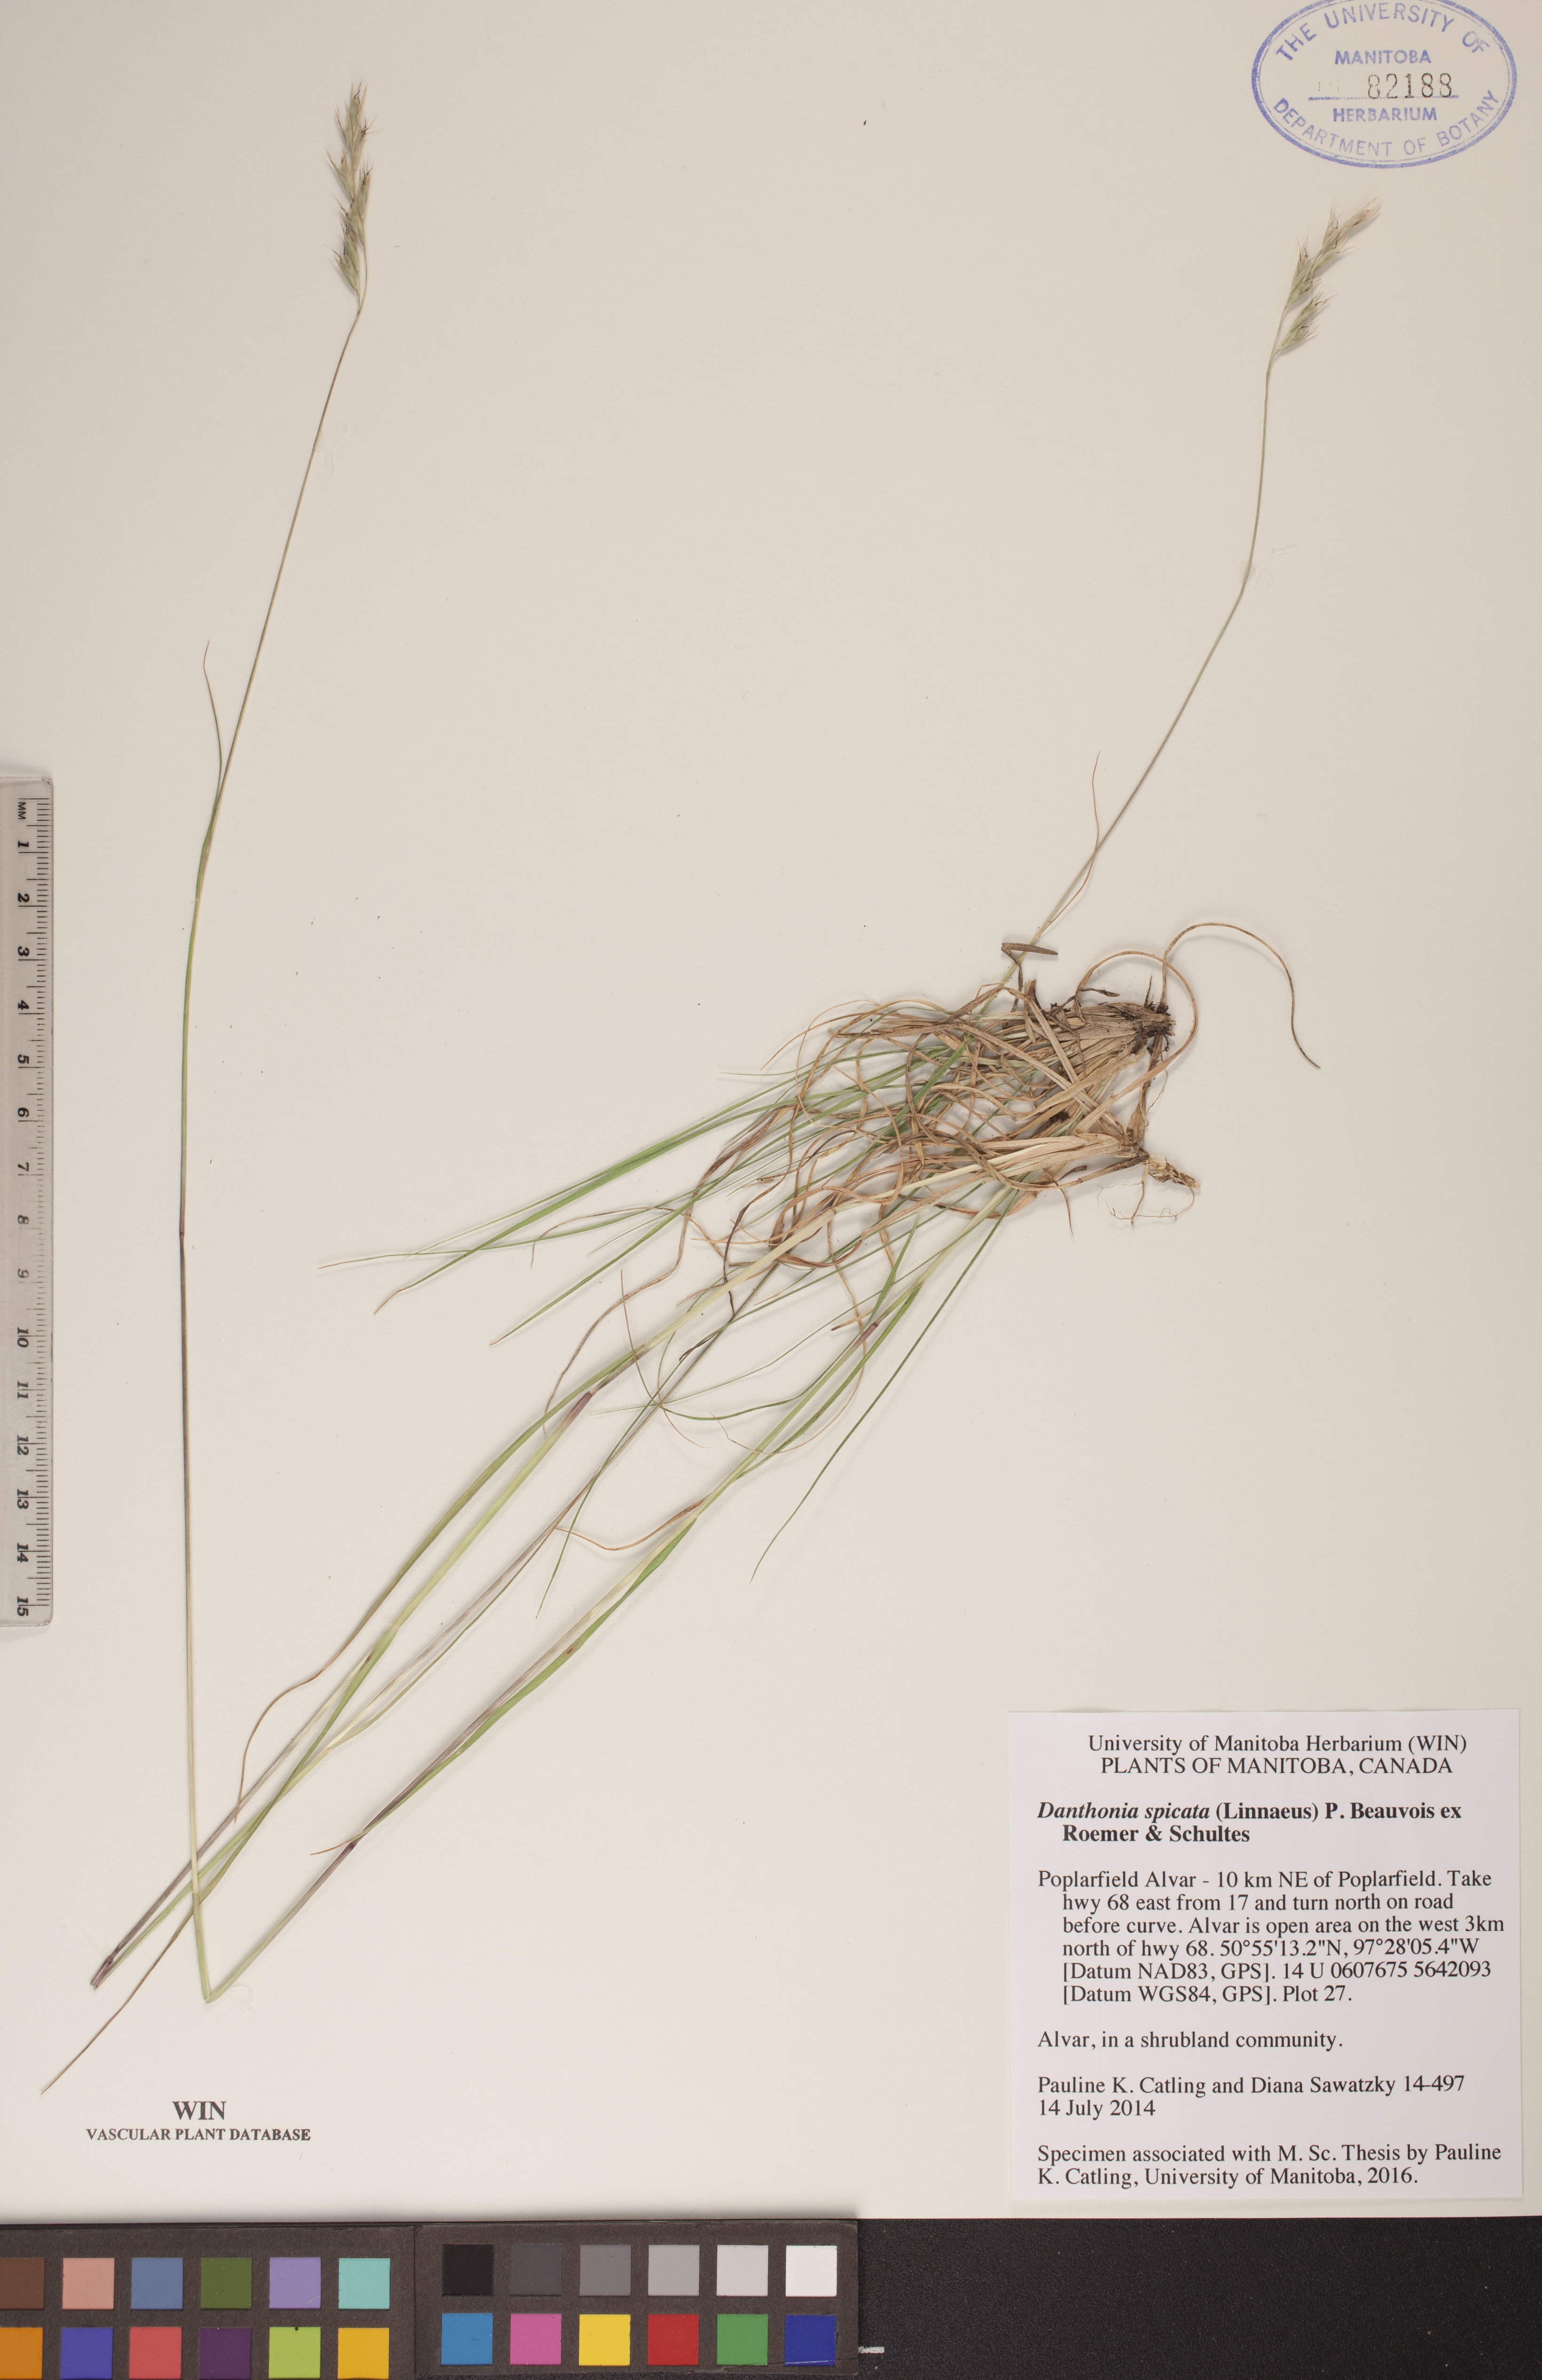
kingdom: Plantae
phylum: Tracheophyta
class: Liliopsida
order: Poales
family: Poaceae
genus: Danthonia
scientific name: Danthonia spicata
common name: Common wild oatgrass
